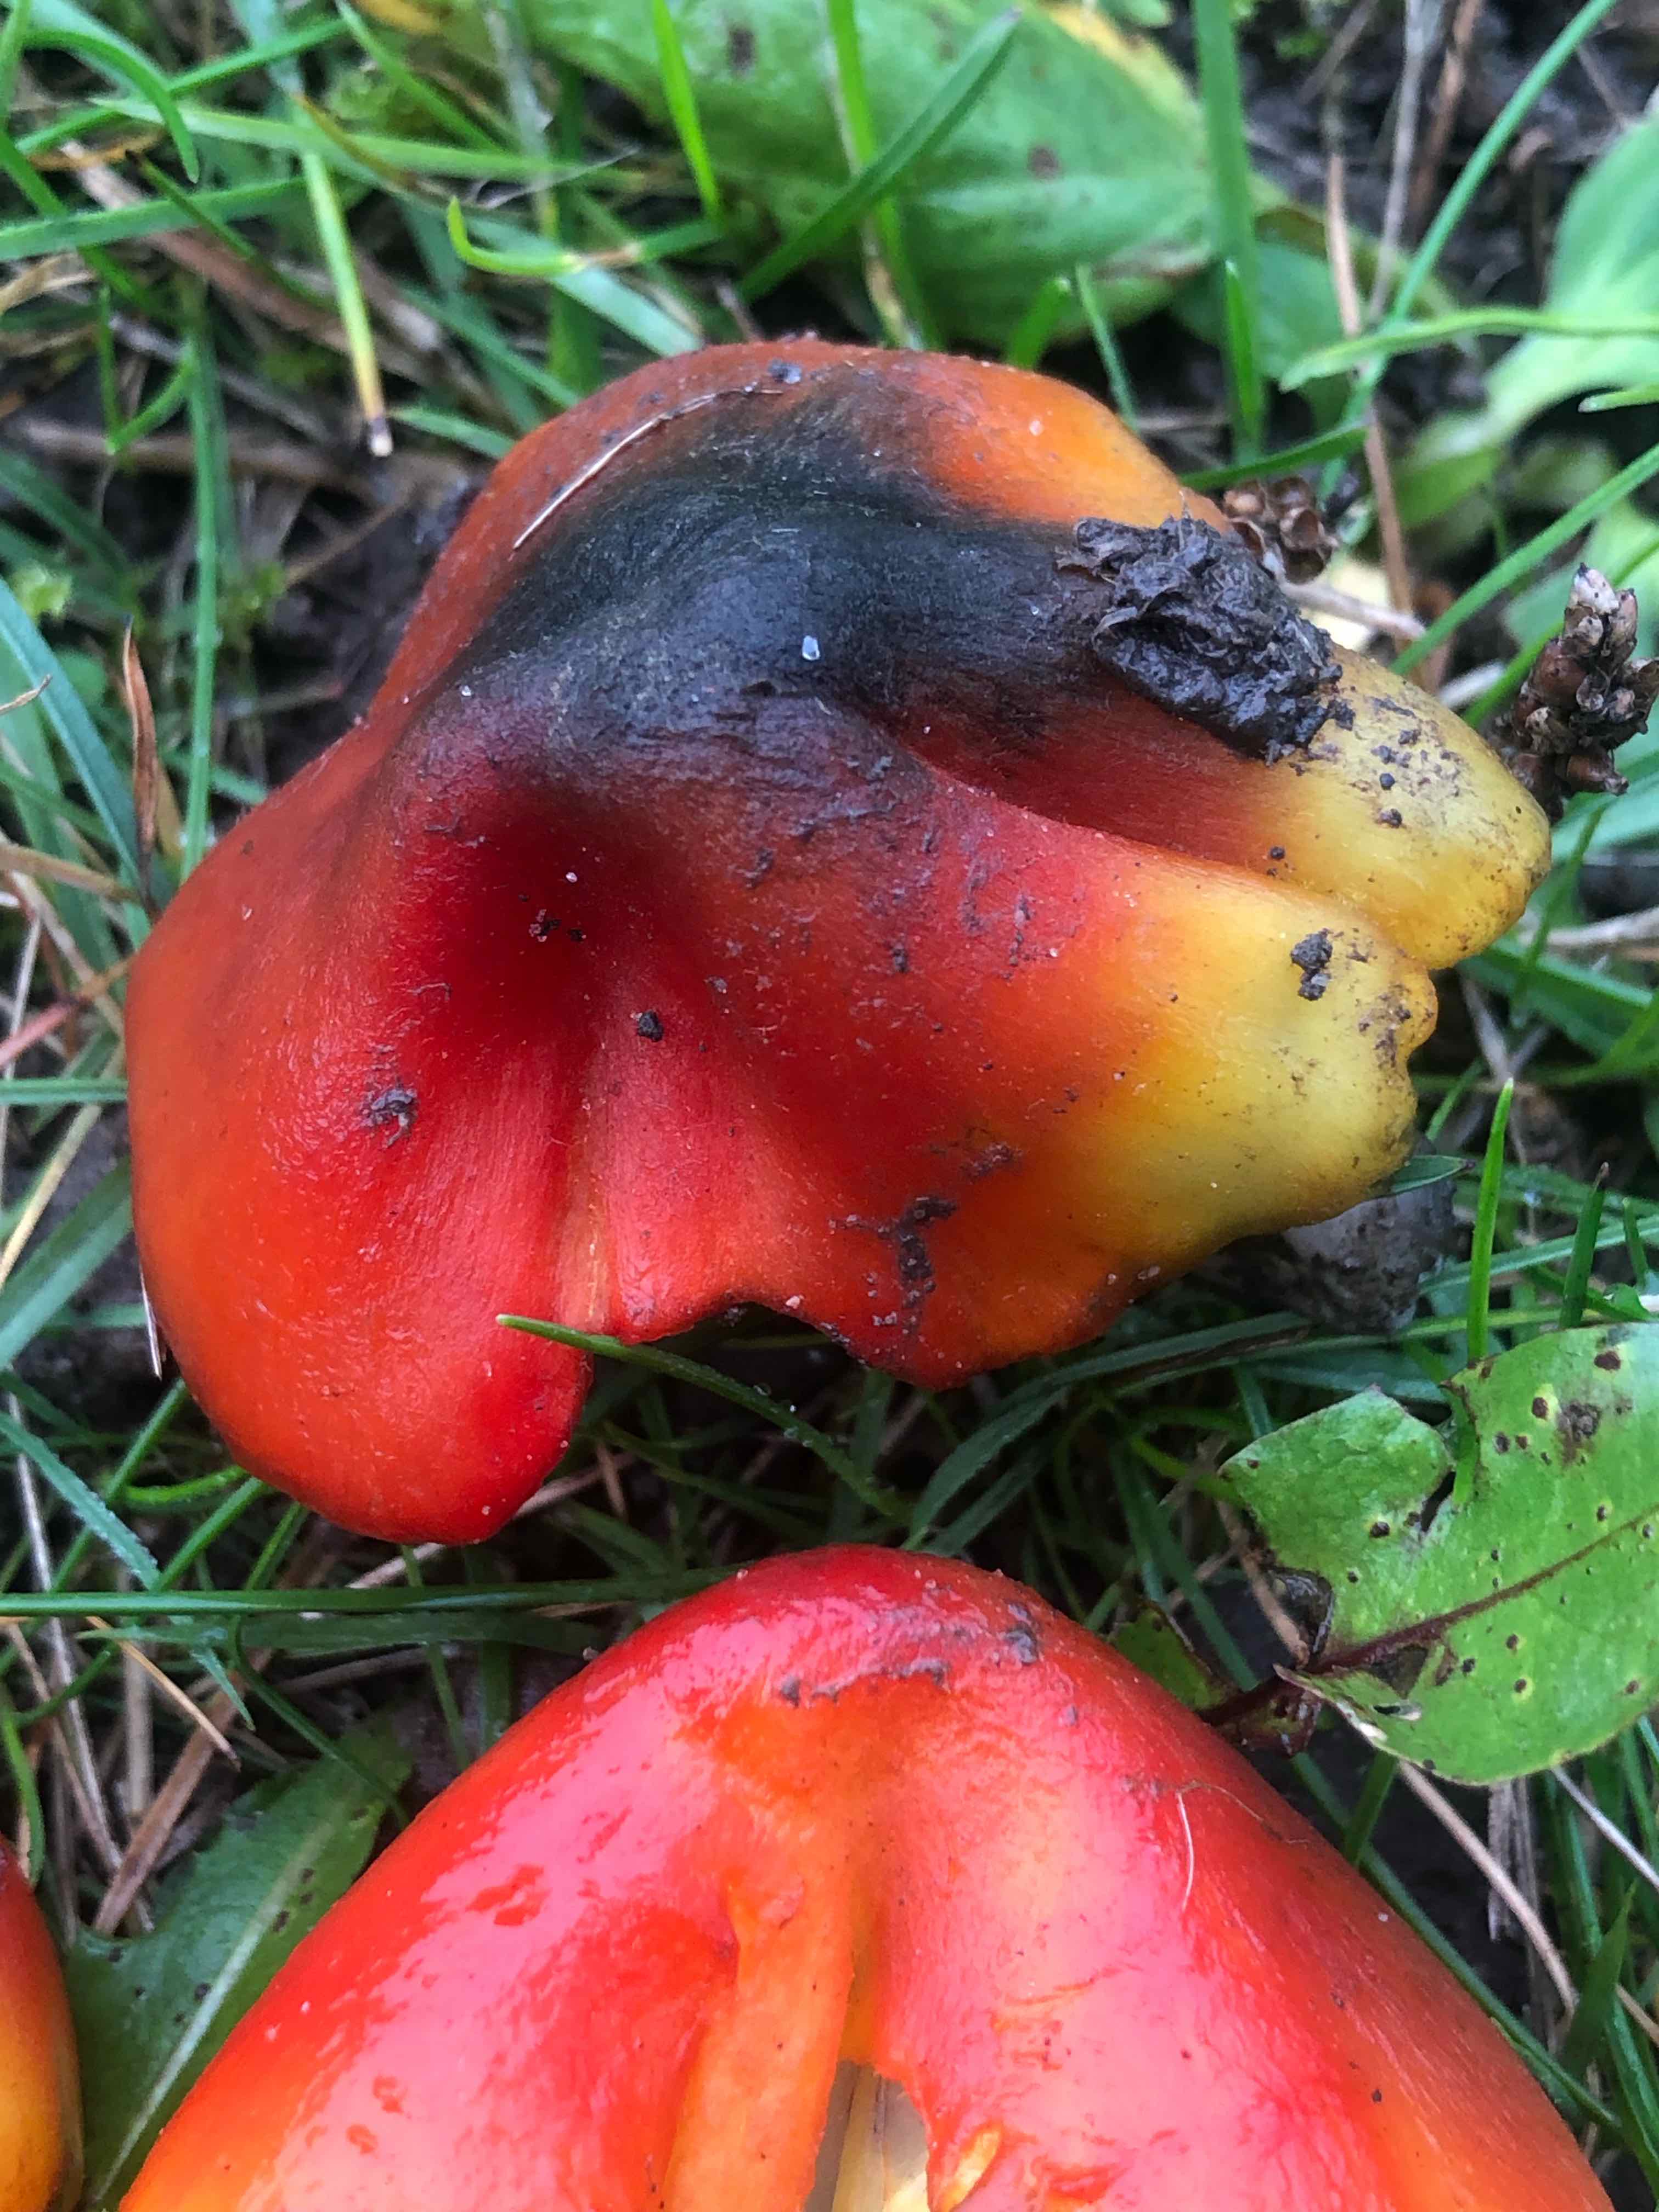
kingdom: Fungi
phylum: Basidiomycota
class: Agaricomycetes
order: Agaricales
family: Hygrophoraceae
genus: Hygrocybe
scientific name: Hygrocybe conica
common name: Blackening wax-cap
